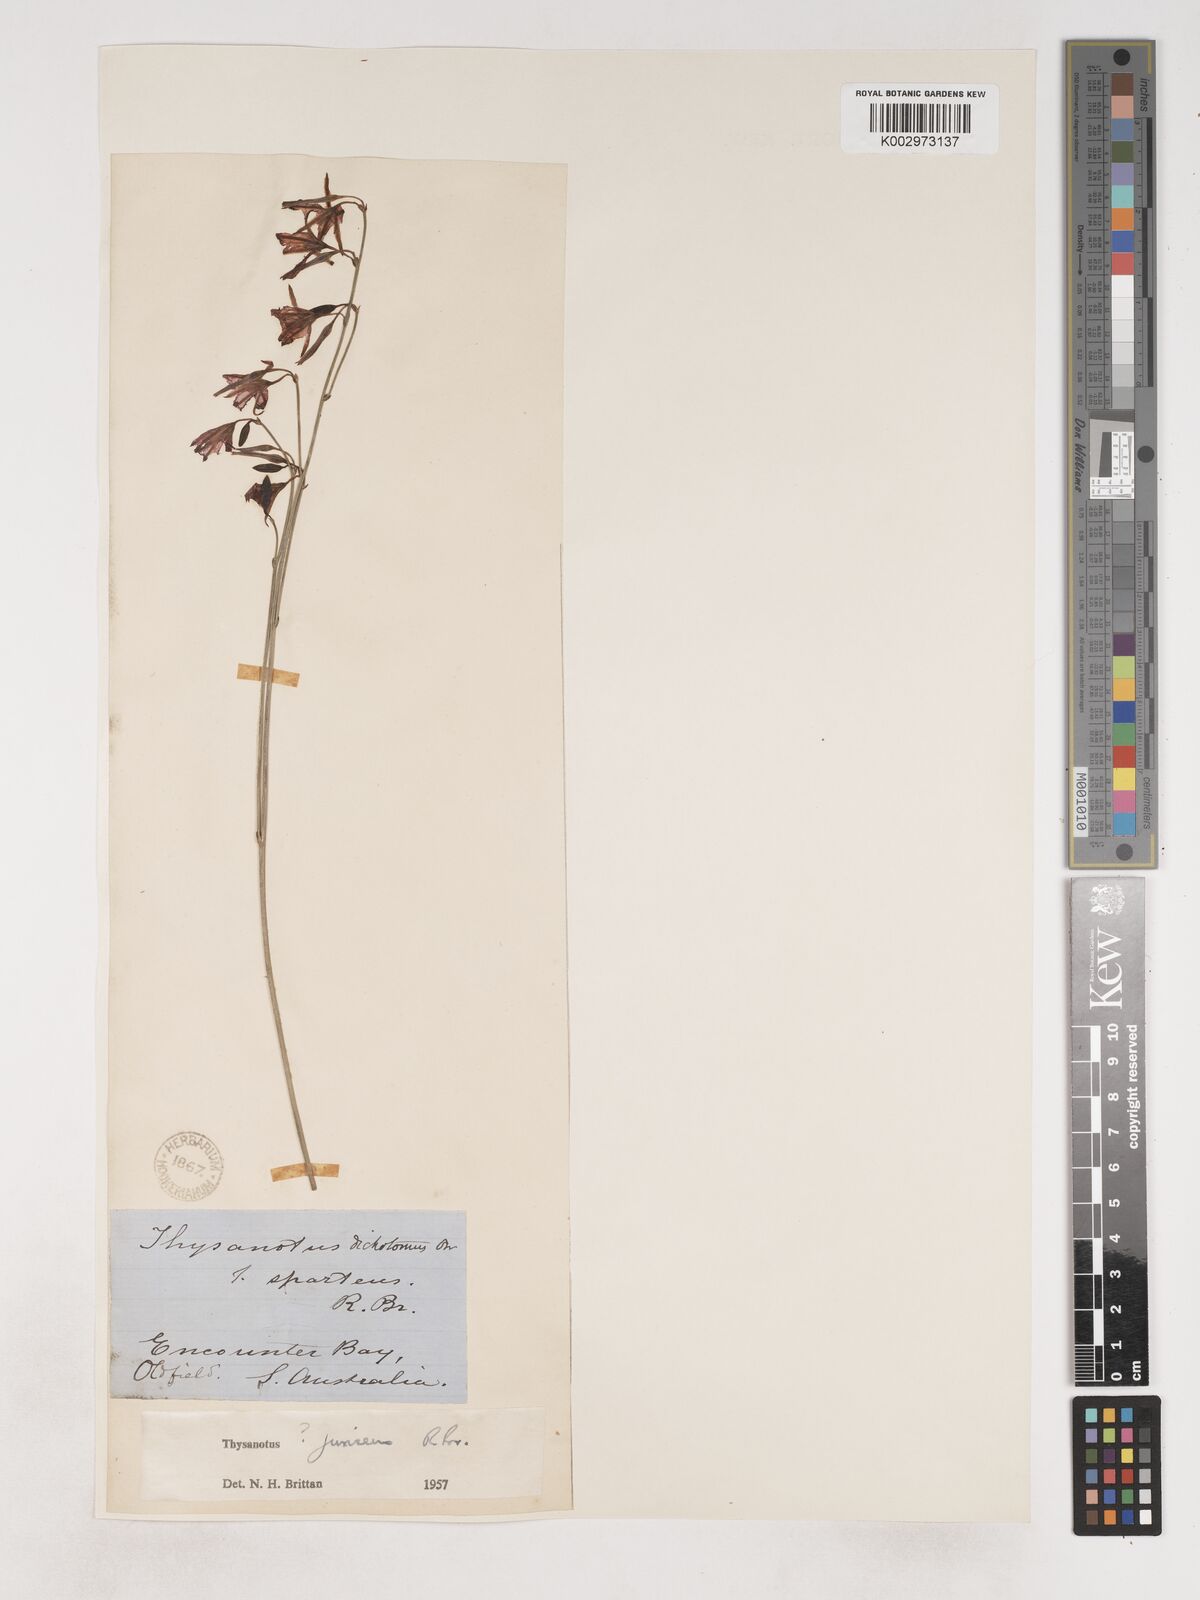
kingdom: Plantae
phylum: Tracheophyta
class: Liliopsida
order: Asparagales
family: Asparagaceae
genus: Thysanotus
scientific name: Thysanotus juncifolius
